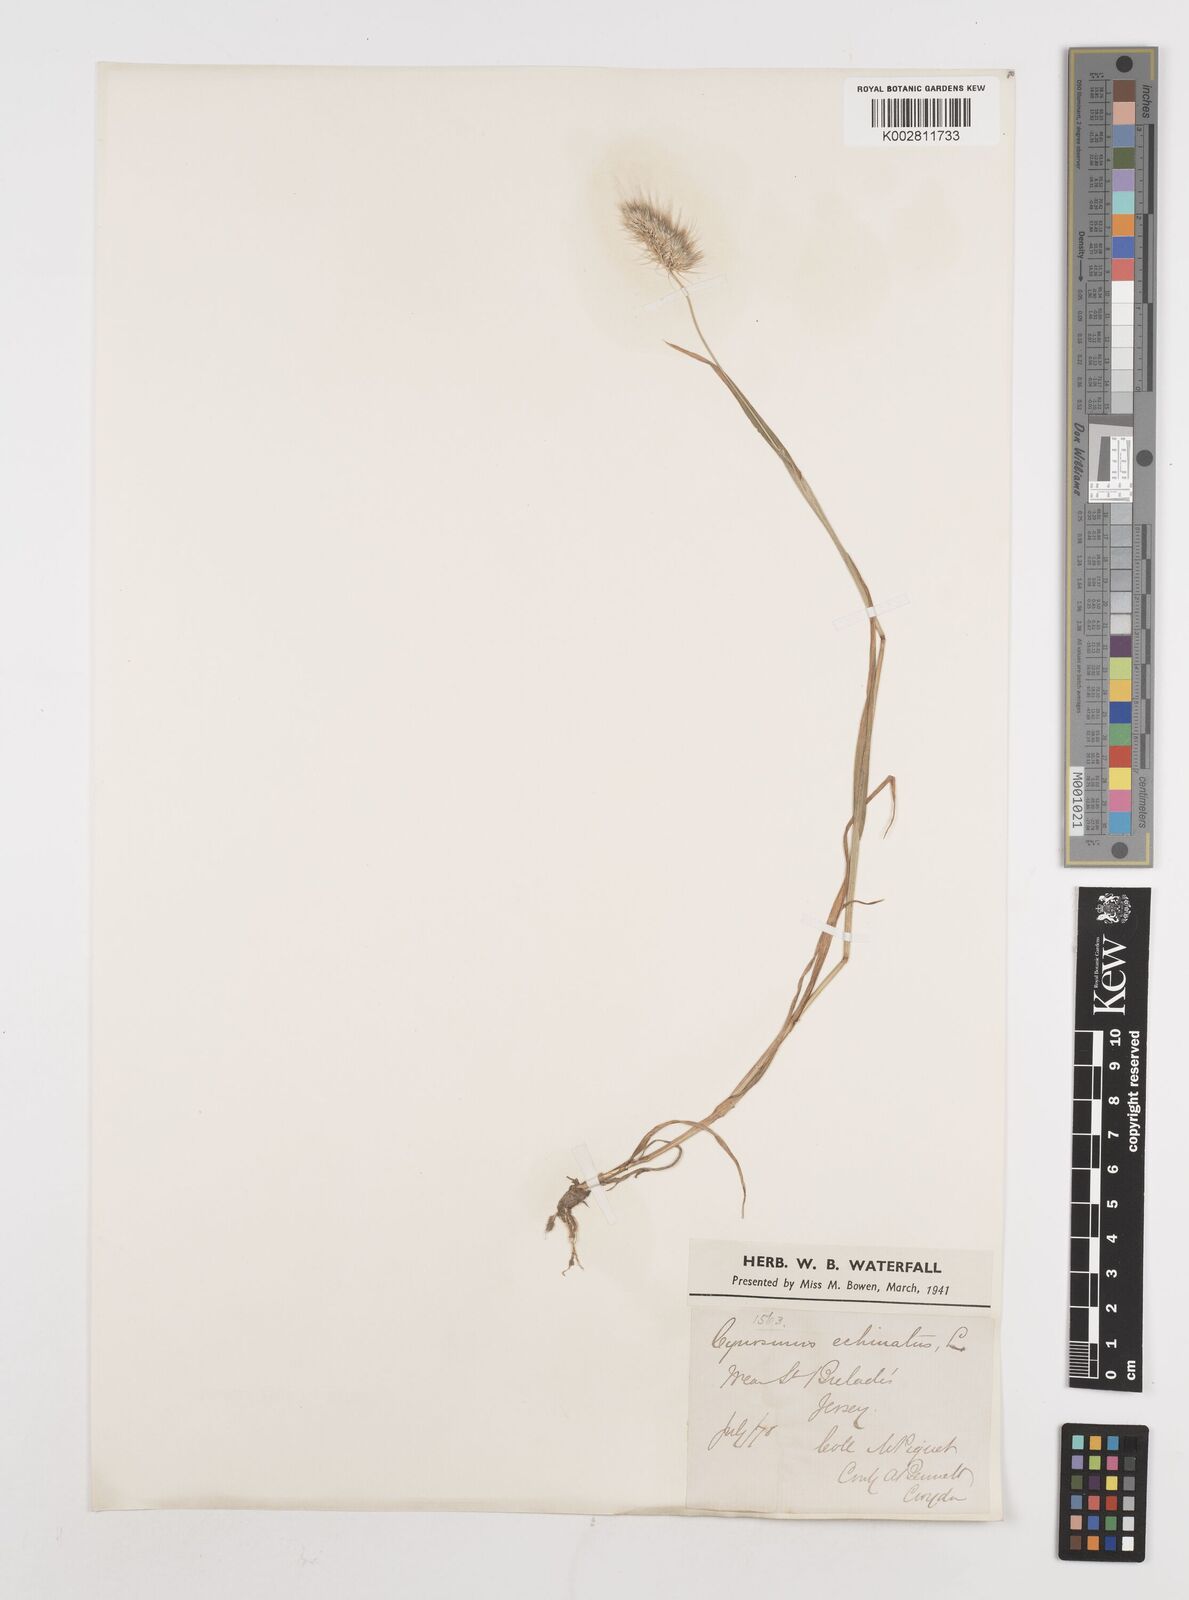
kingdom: Plantae
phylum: Tracheophyta
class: Liliopsida
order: Poales
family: Poaceae
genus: Cynosurus
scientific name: Cynosurus echinatus
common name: Rough dog's-tail
